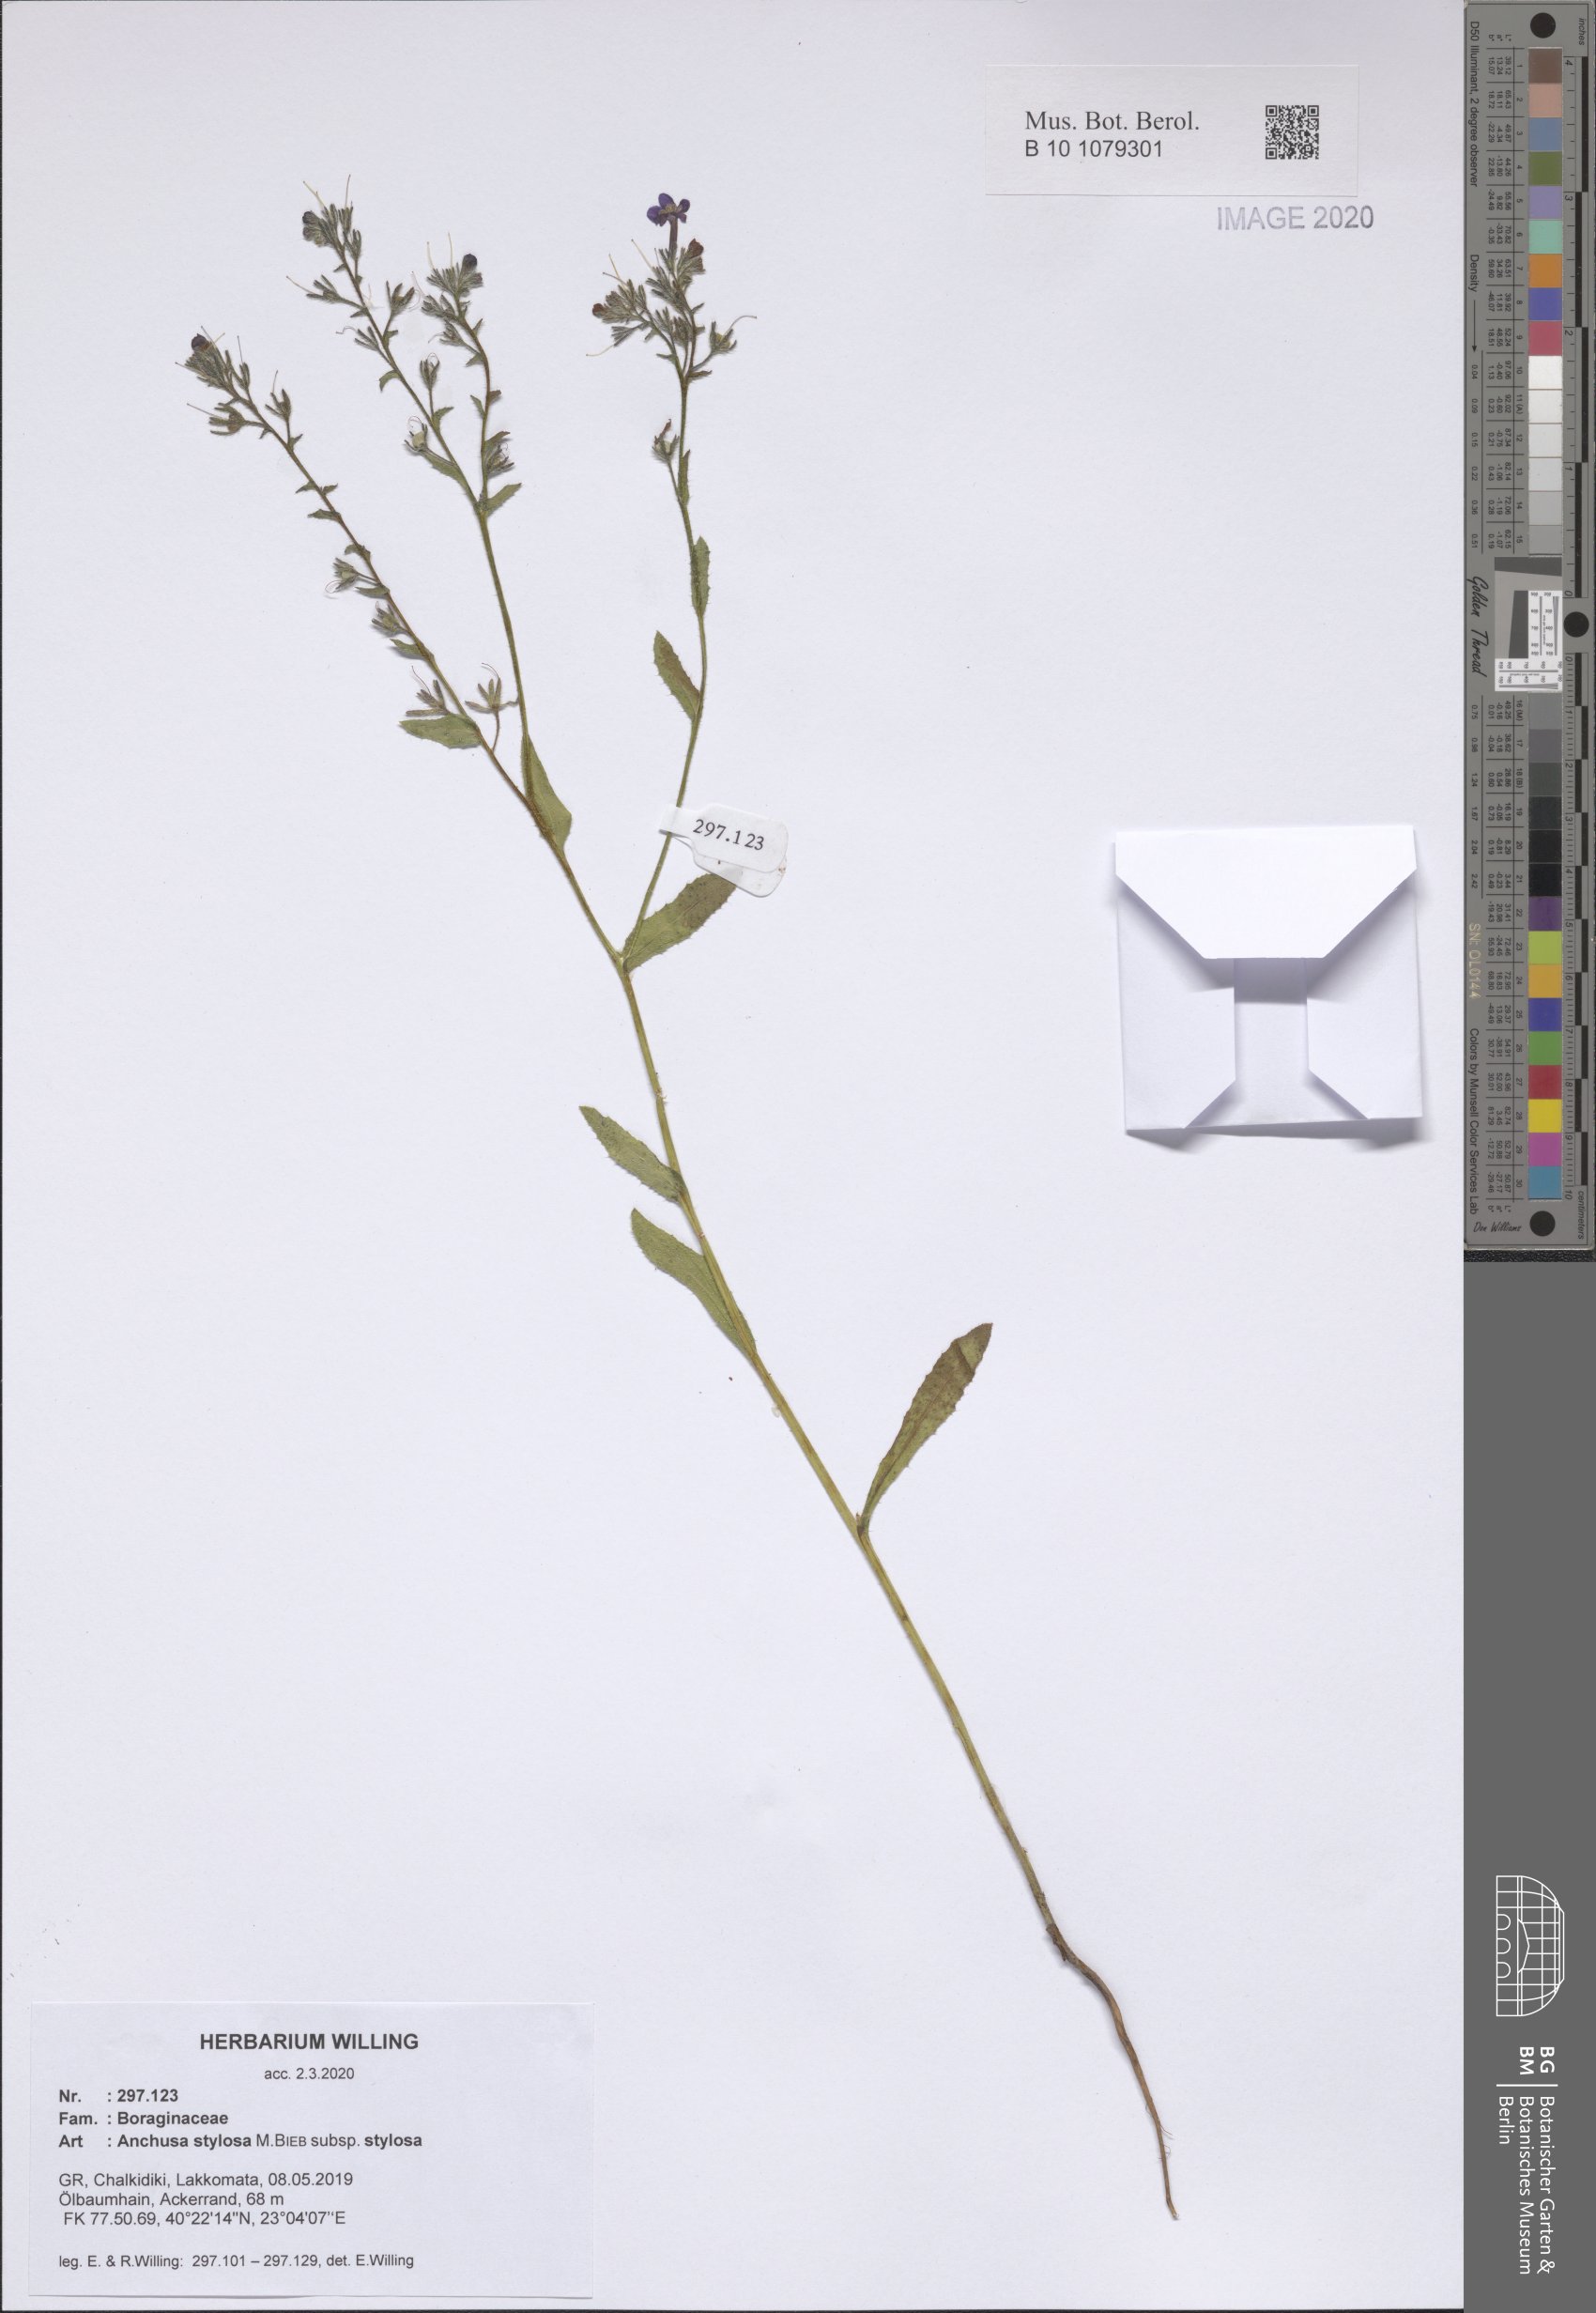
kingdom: Plantae
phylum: Tracheophyta
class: Magnoliopsida
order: Boraginales
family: Boraginaceae
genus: Anchusa
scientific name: Anchusa stylosa
